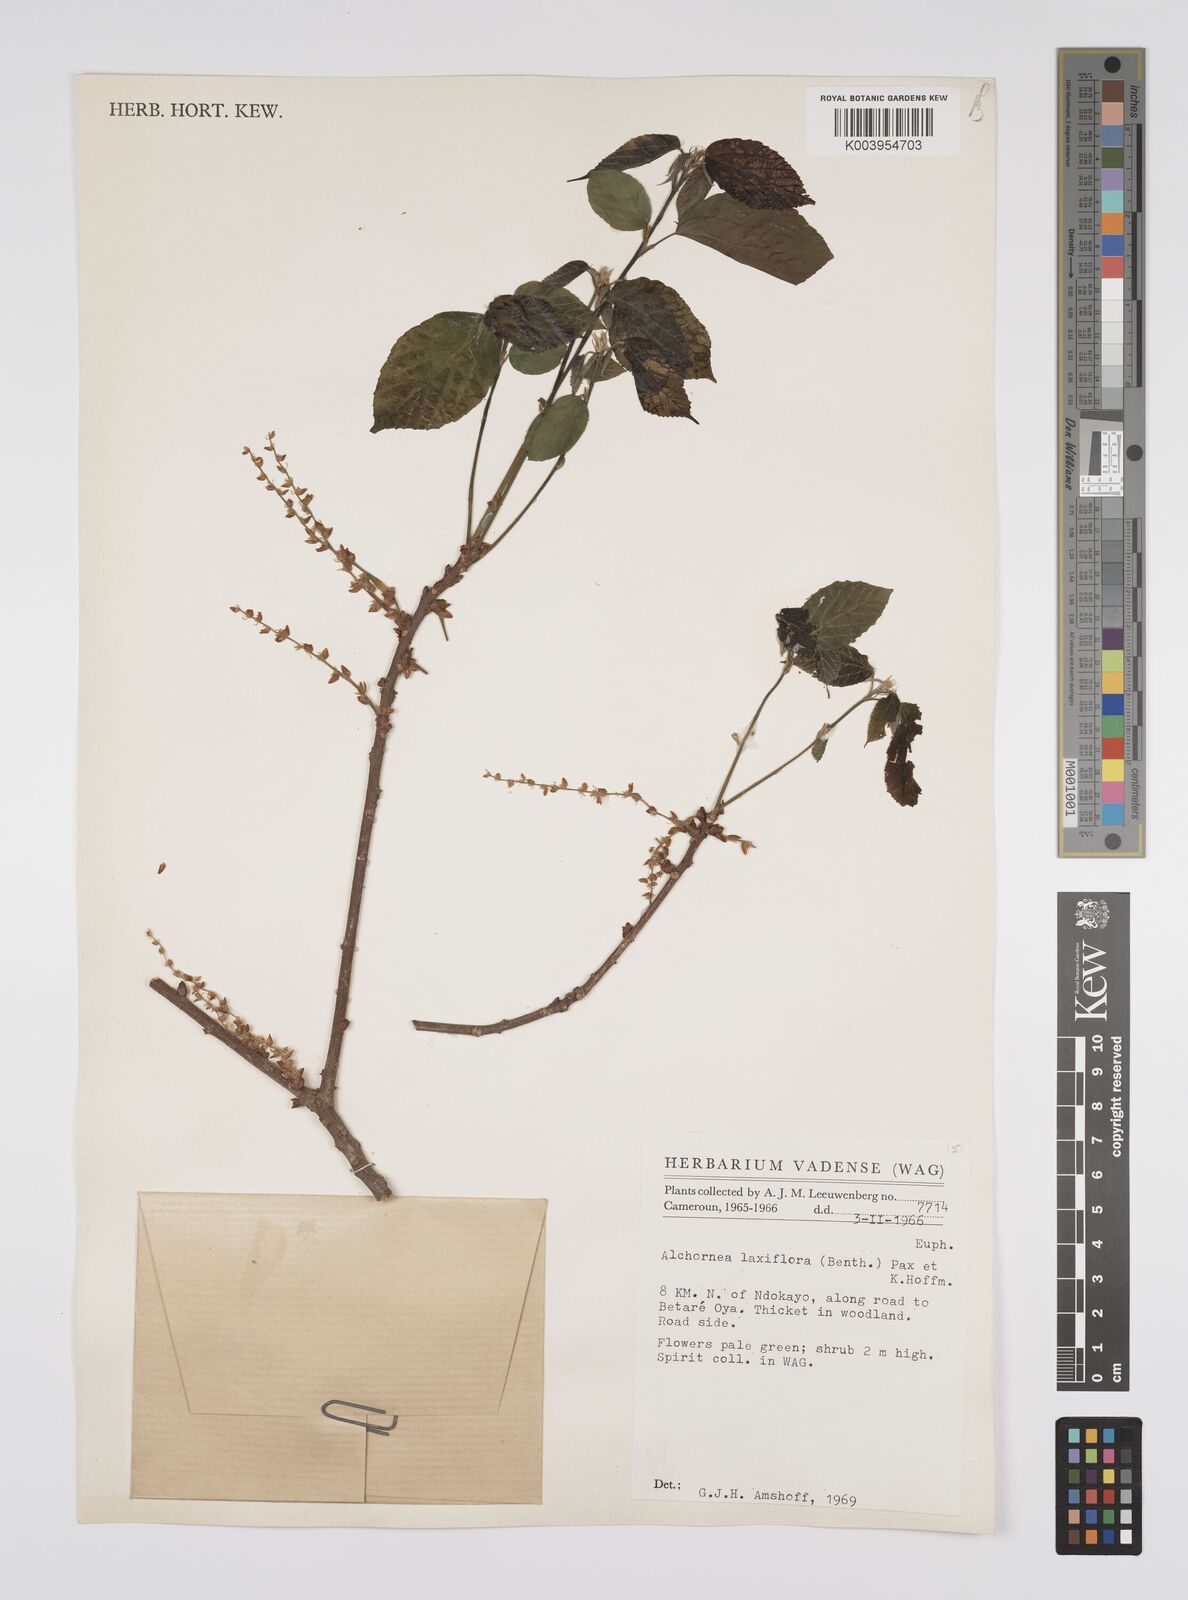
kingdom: Plantae
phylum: Tracheophyta
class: Magnoliopsida
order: Malpighiales
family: Euphorbiaceae
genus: Alchornea
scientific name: Alchornea laxiflora
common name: Lowveld bead-string
